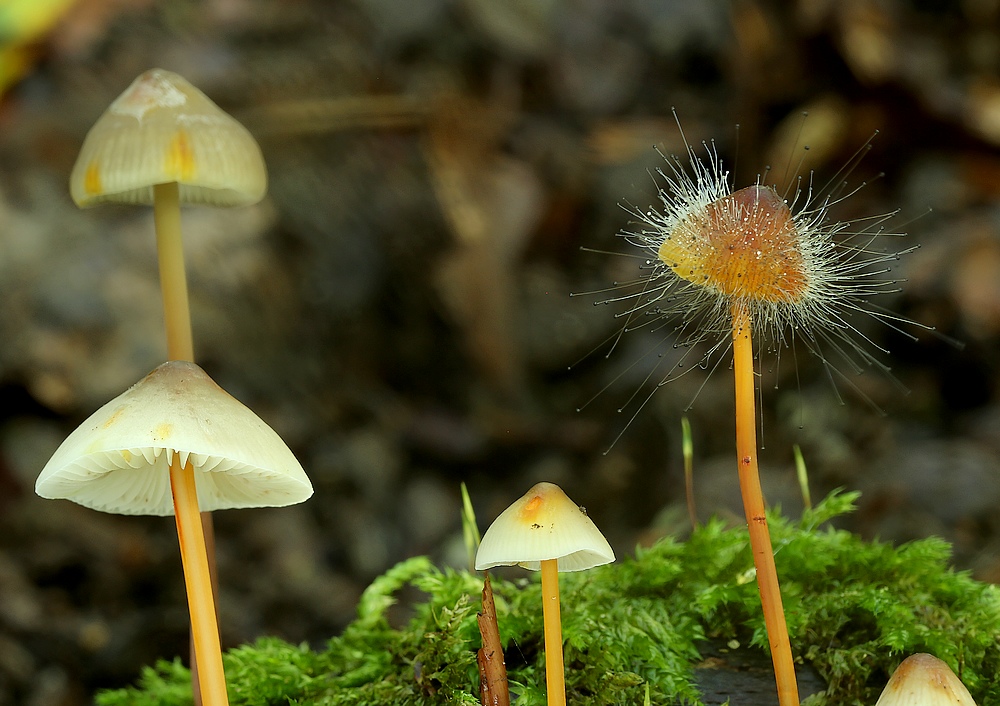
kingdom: Fungi
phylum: Mucoromycota
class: Mucoromycetes
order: Mucorales
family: Phycomycetaceae
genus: Spinellus
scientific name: Spinellus fusiger
